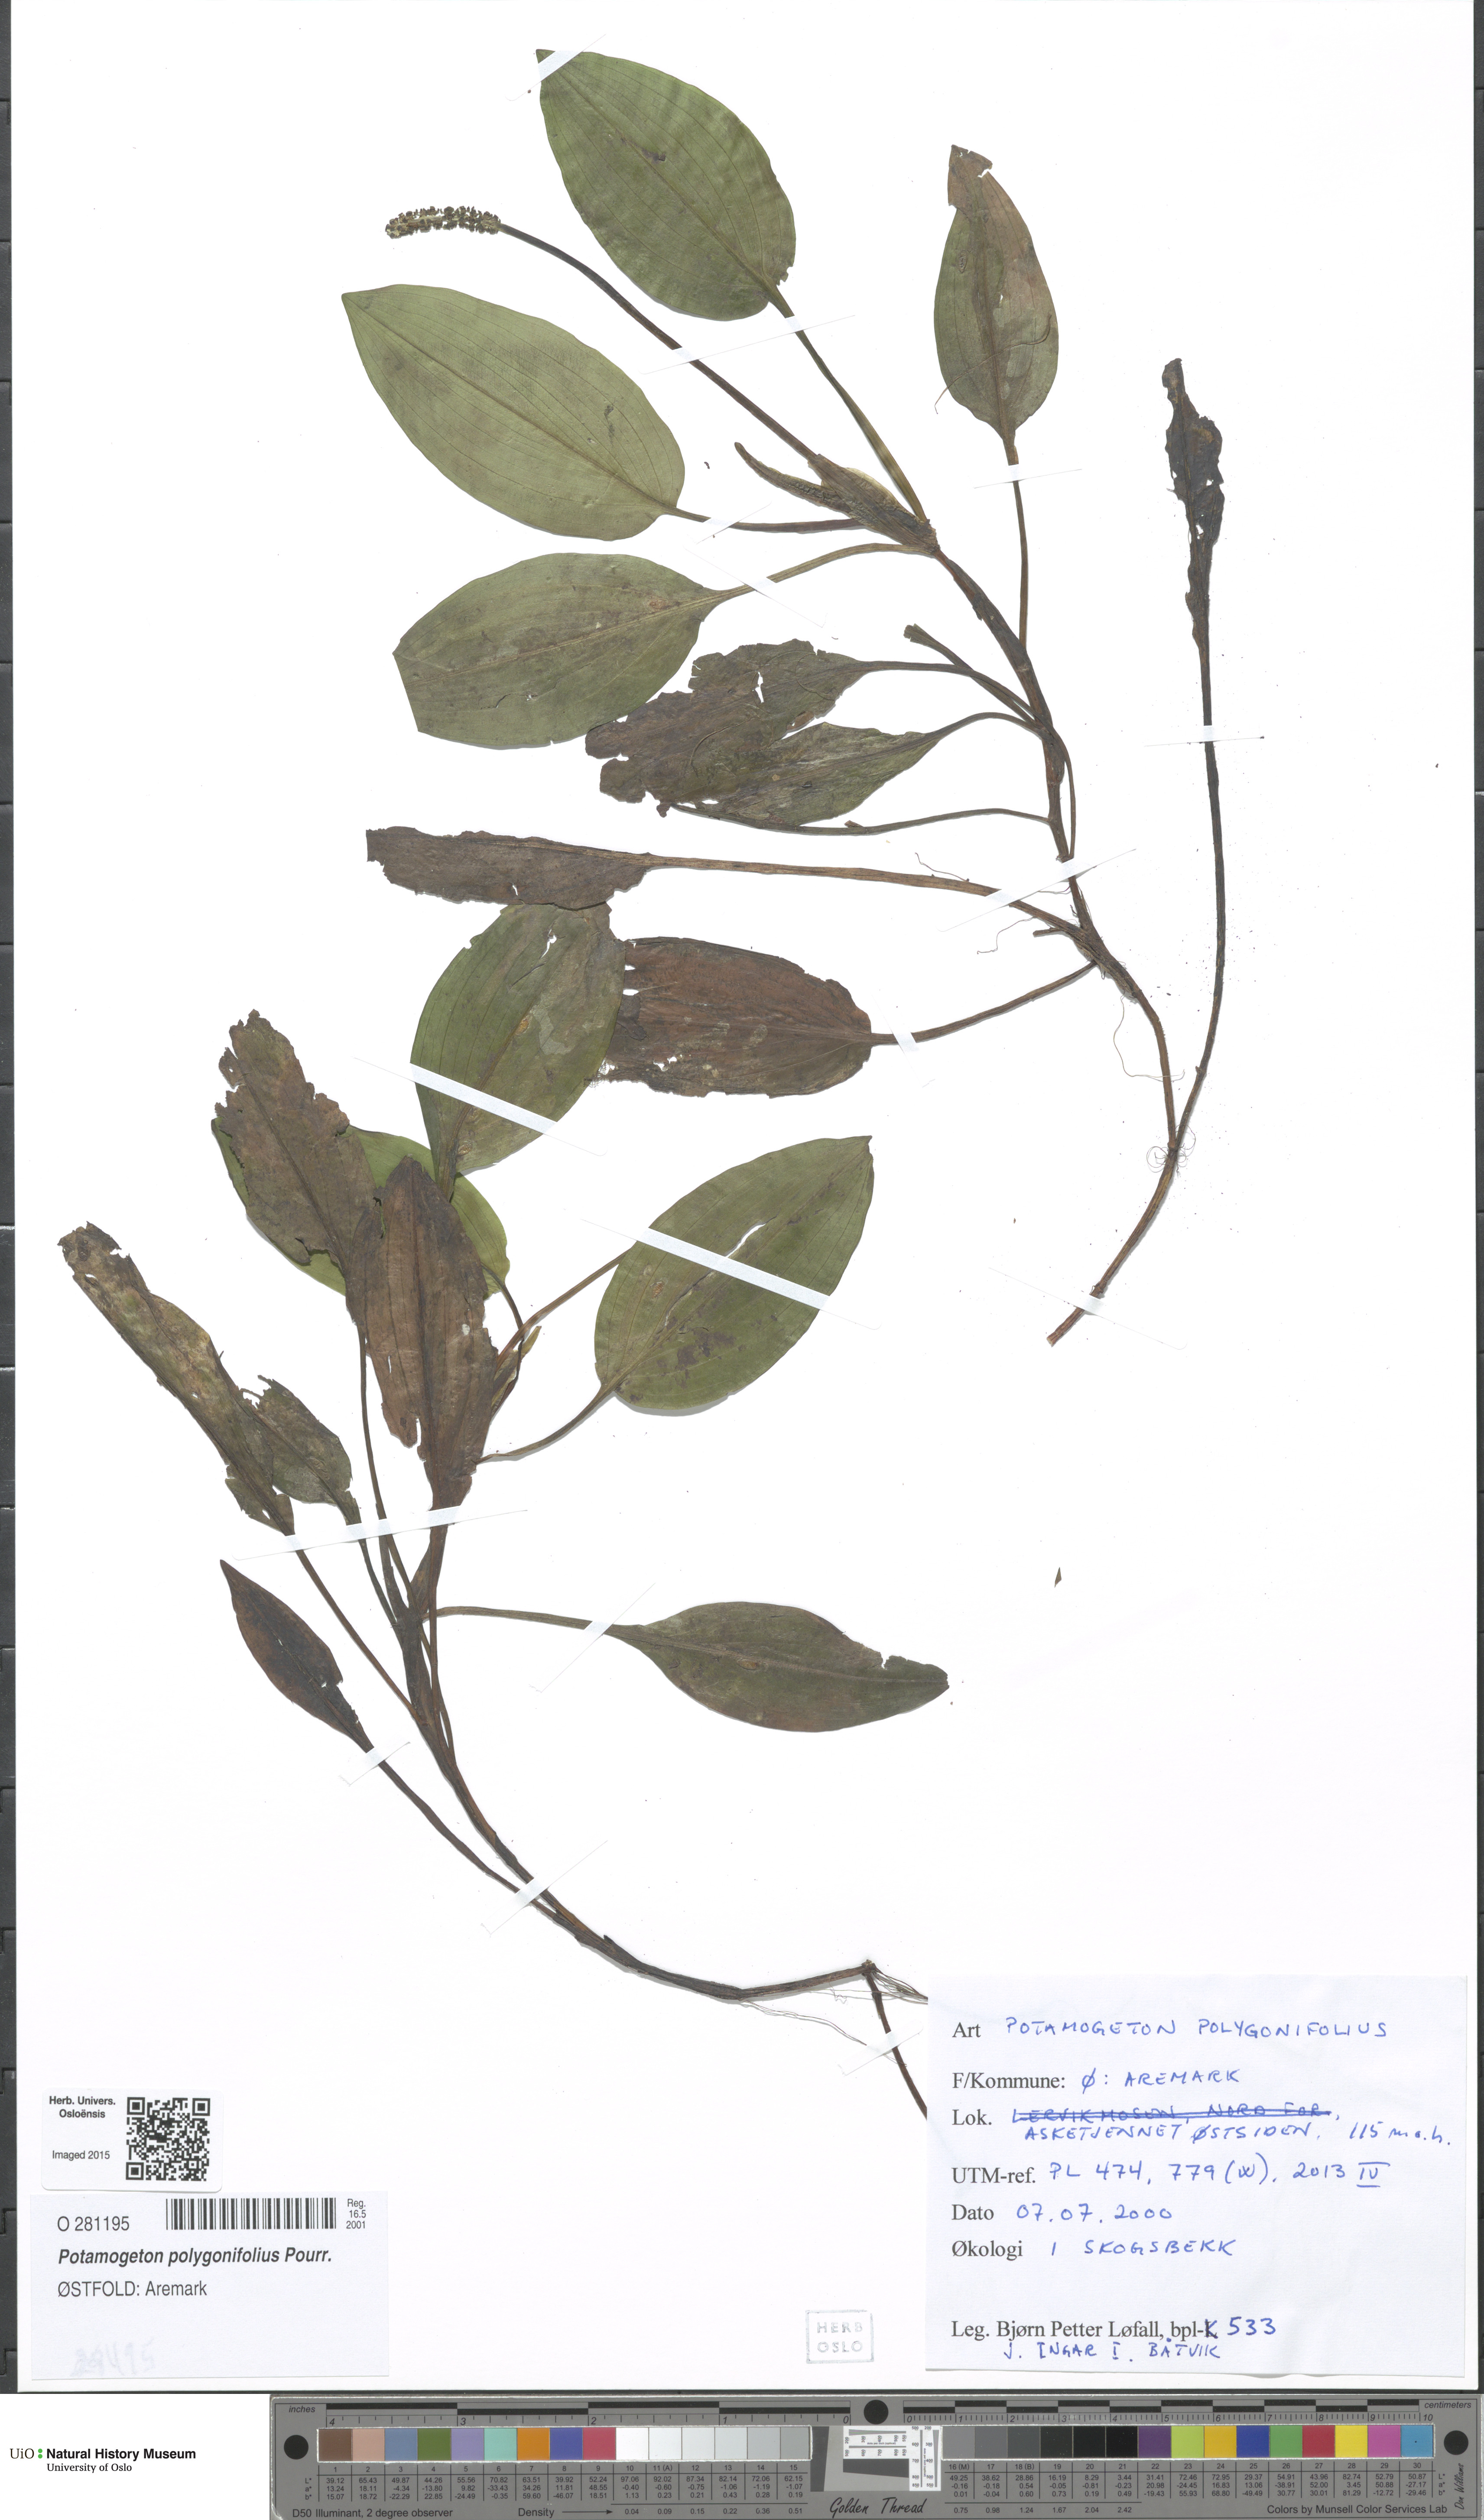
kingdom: Plantae
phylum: Tracheophyta
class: Liliopsida
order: Alismatales
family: Potamogetonaceae
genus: Potamogeton
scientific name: Potamogeton polygonifolius
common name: Bog pondweed
